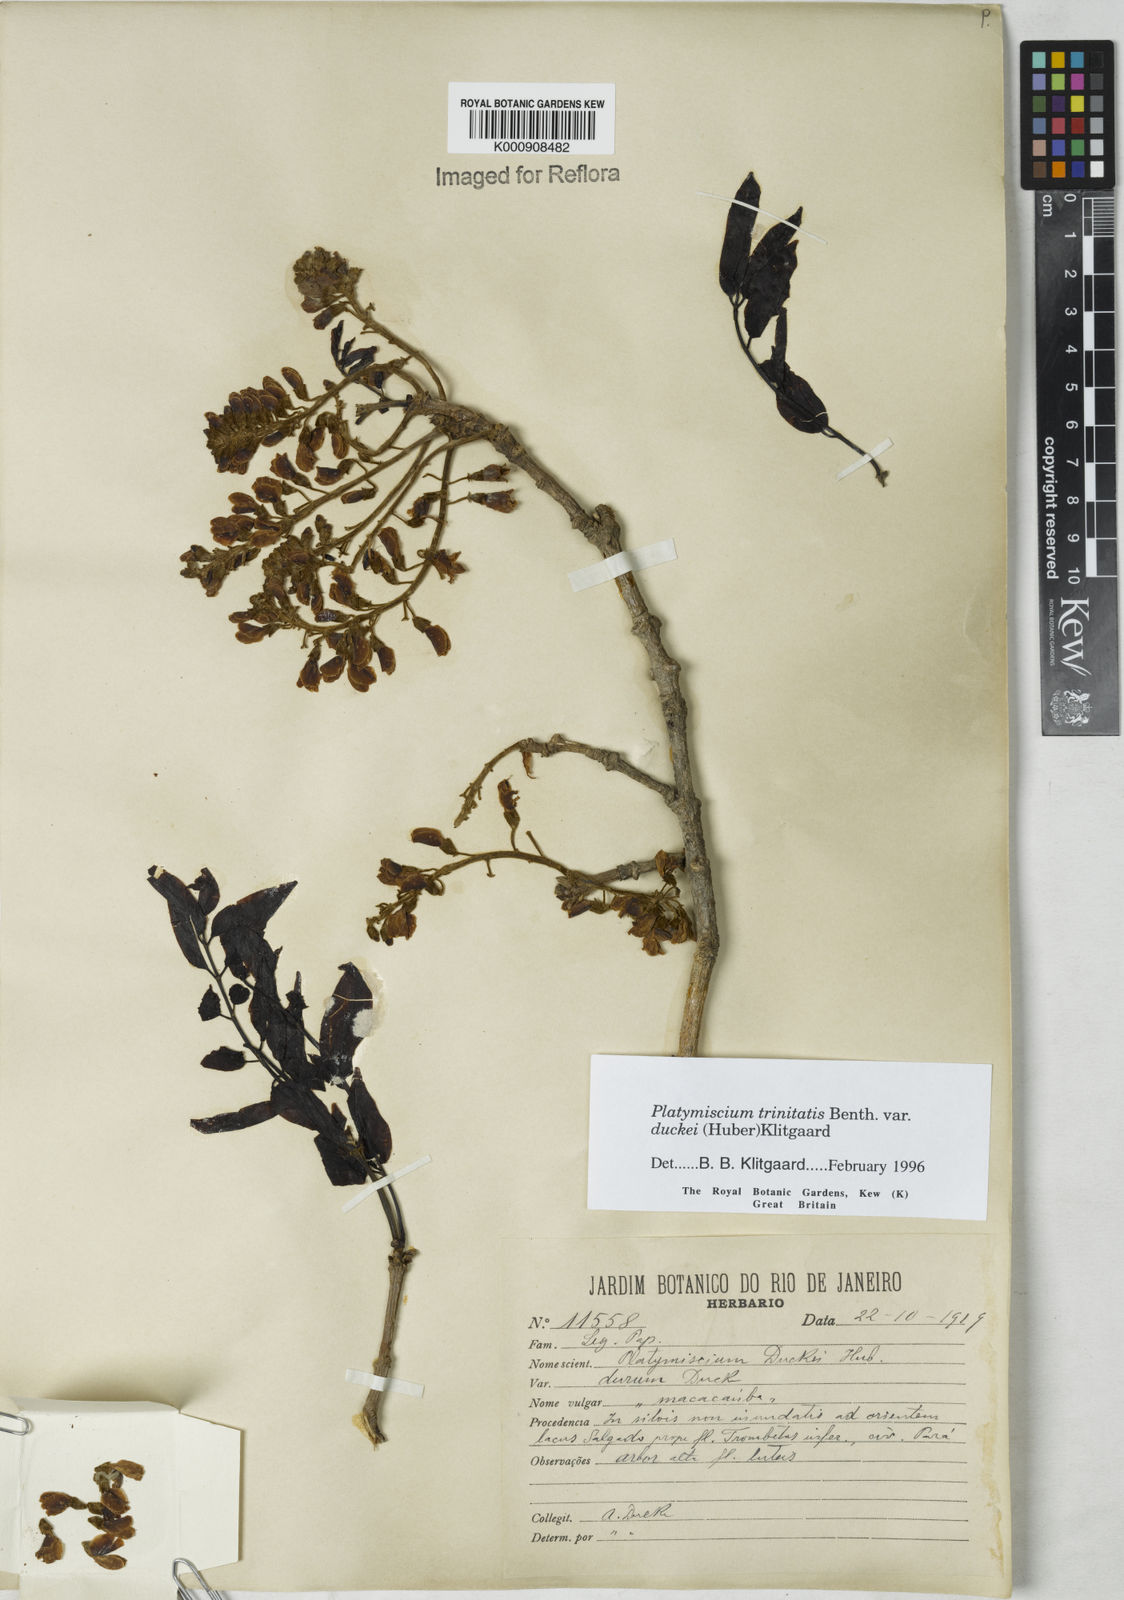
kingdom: Plantae
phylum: Tracheophyta
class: Magnoliopsida
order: Fabales
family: Fabaceae
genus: Platymiscium
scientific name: Platymiscium trinitatis
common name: Trinidad macawood
